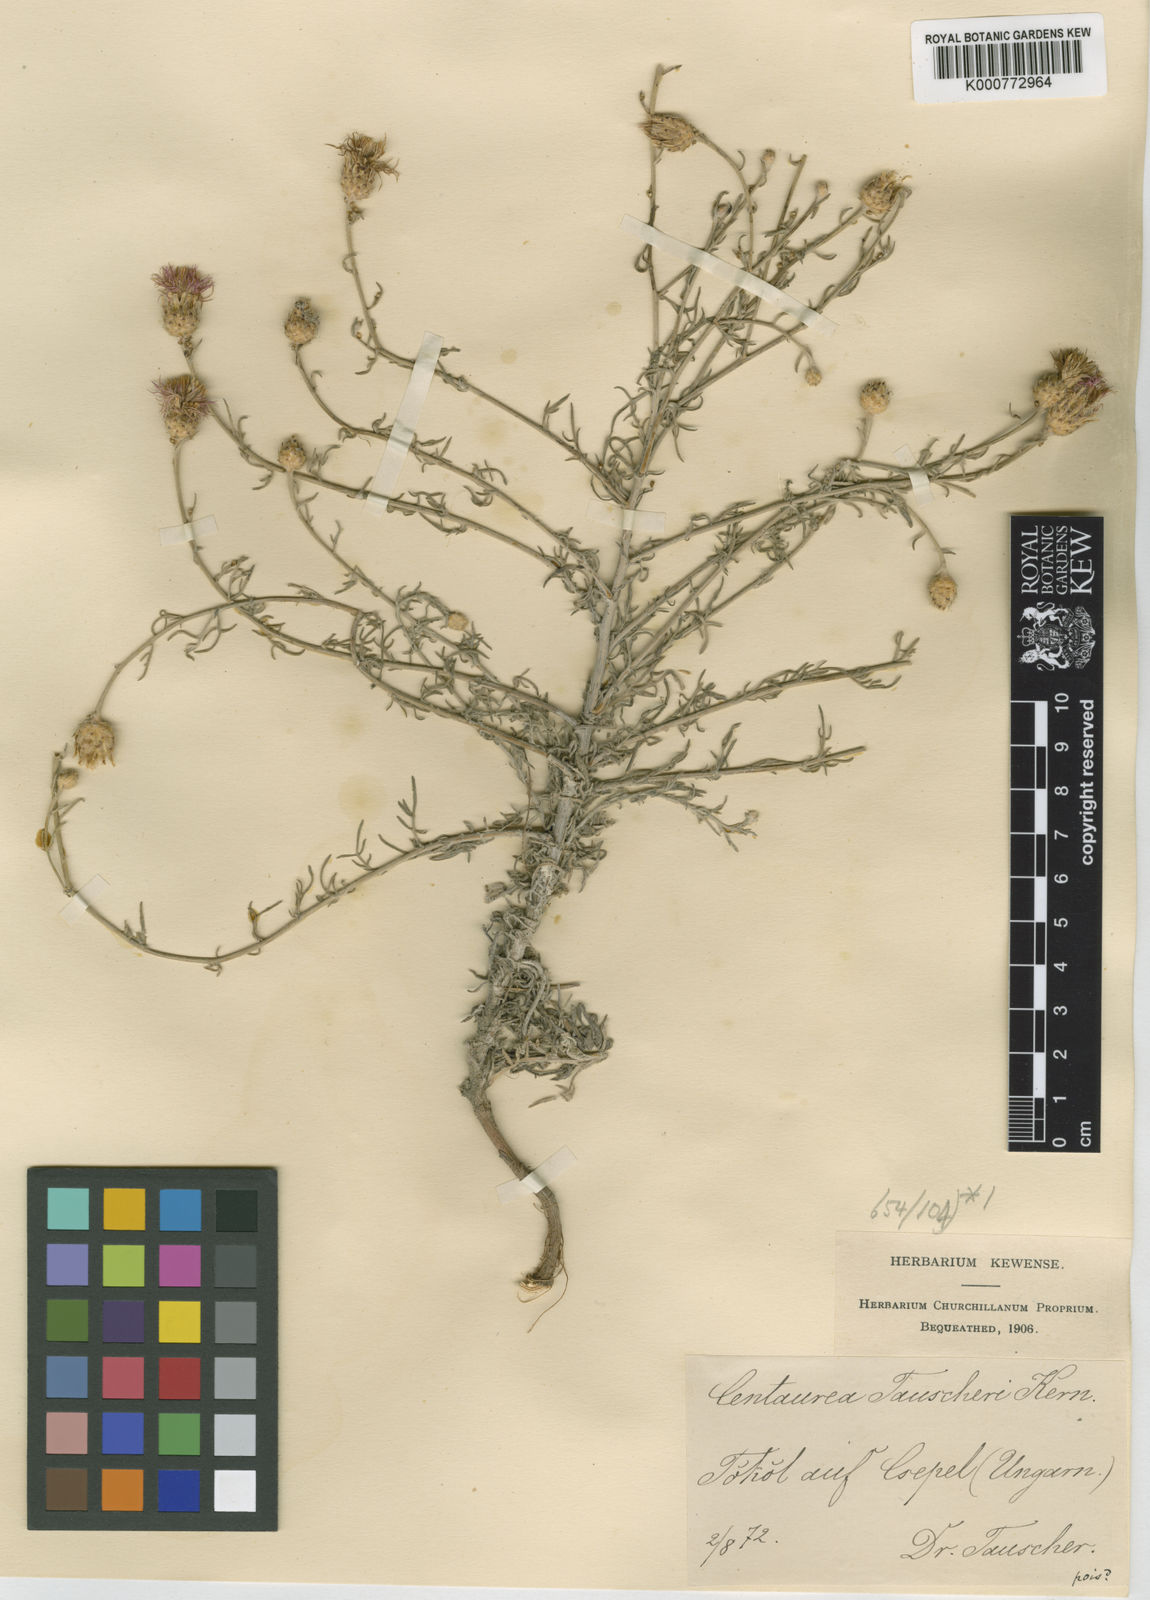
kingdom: Plantae
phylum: Tracheophyta
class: Magnoliopsida
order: Asterales
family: Asteraceae
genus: Centaurea
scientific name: Centaurea tauscheri
